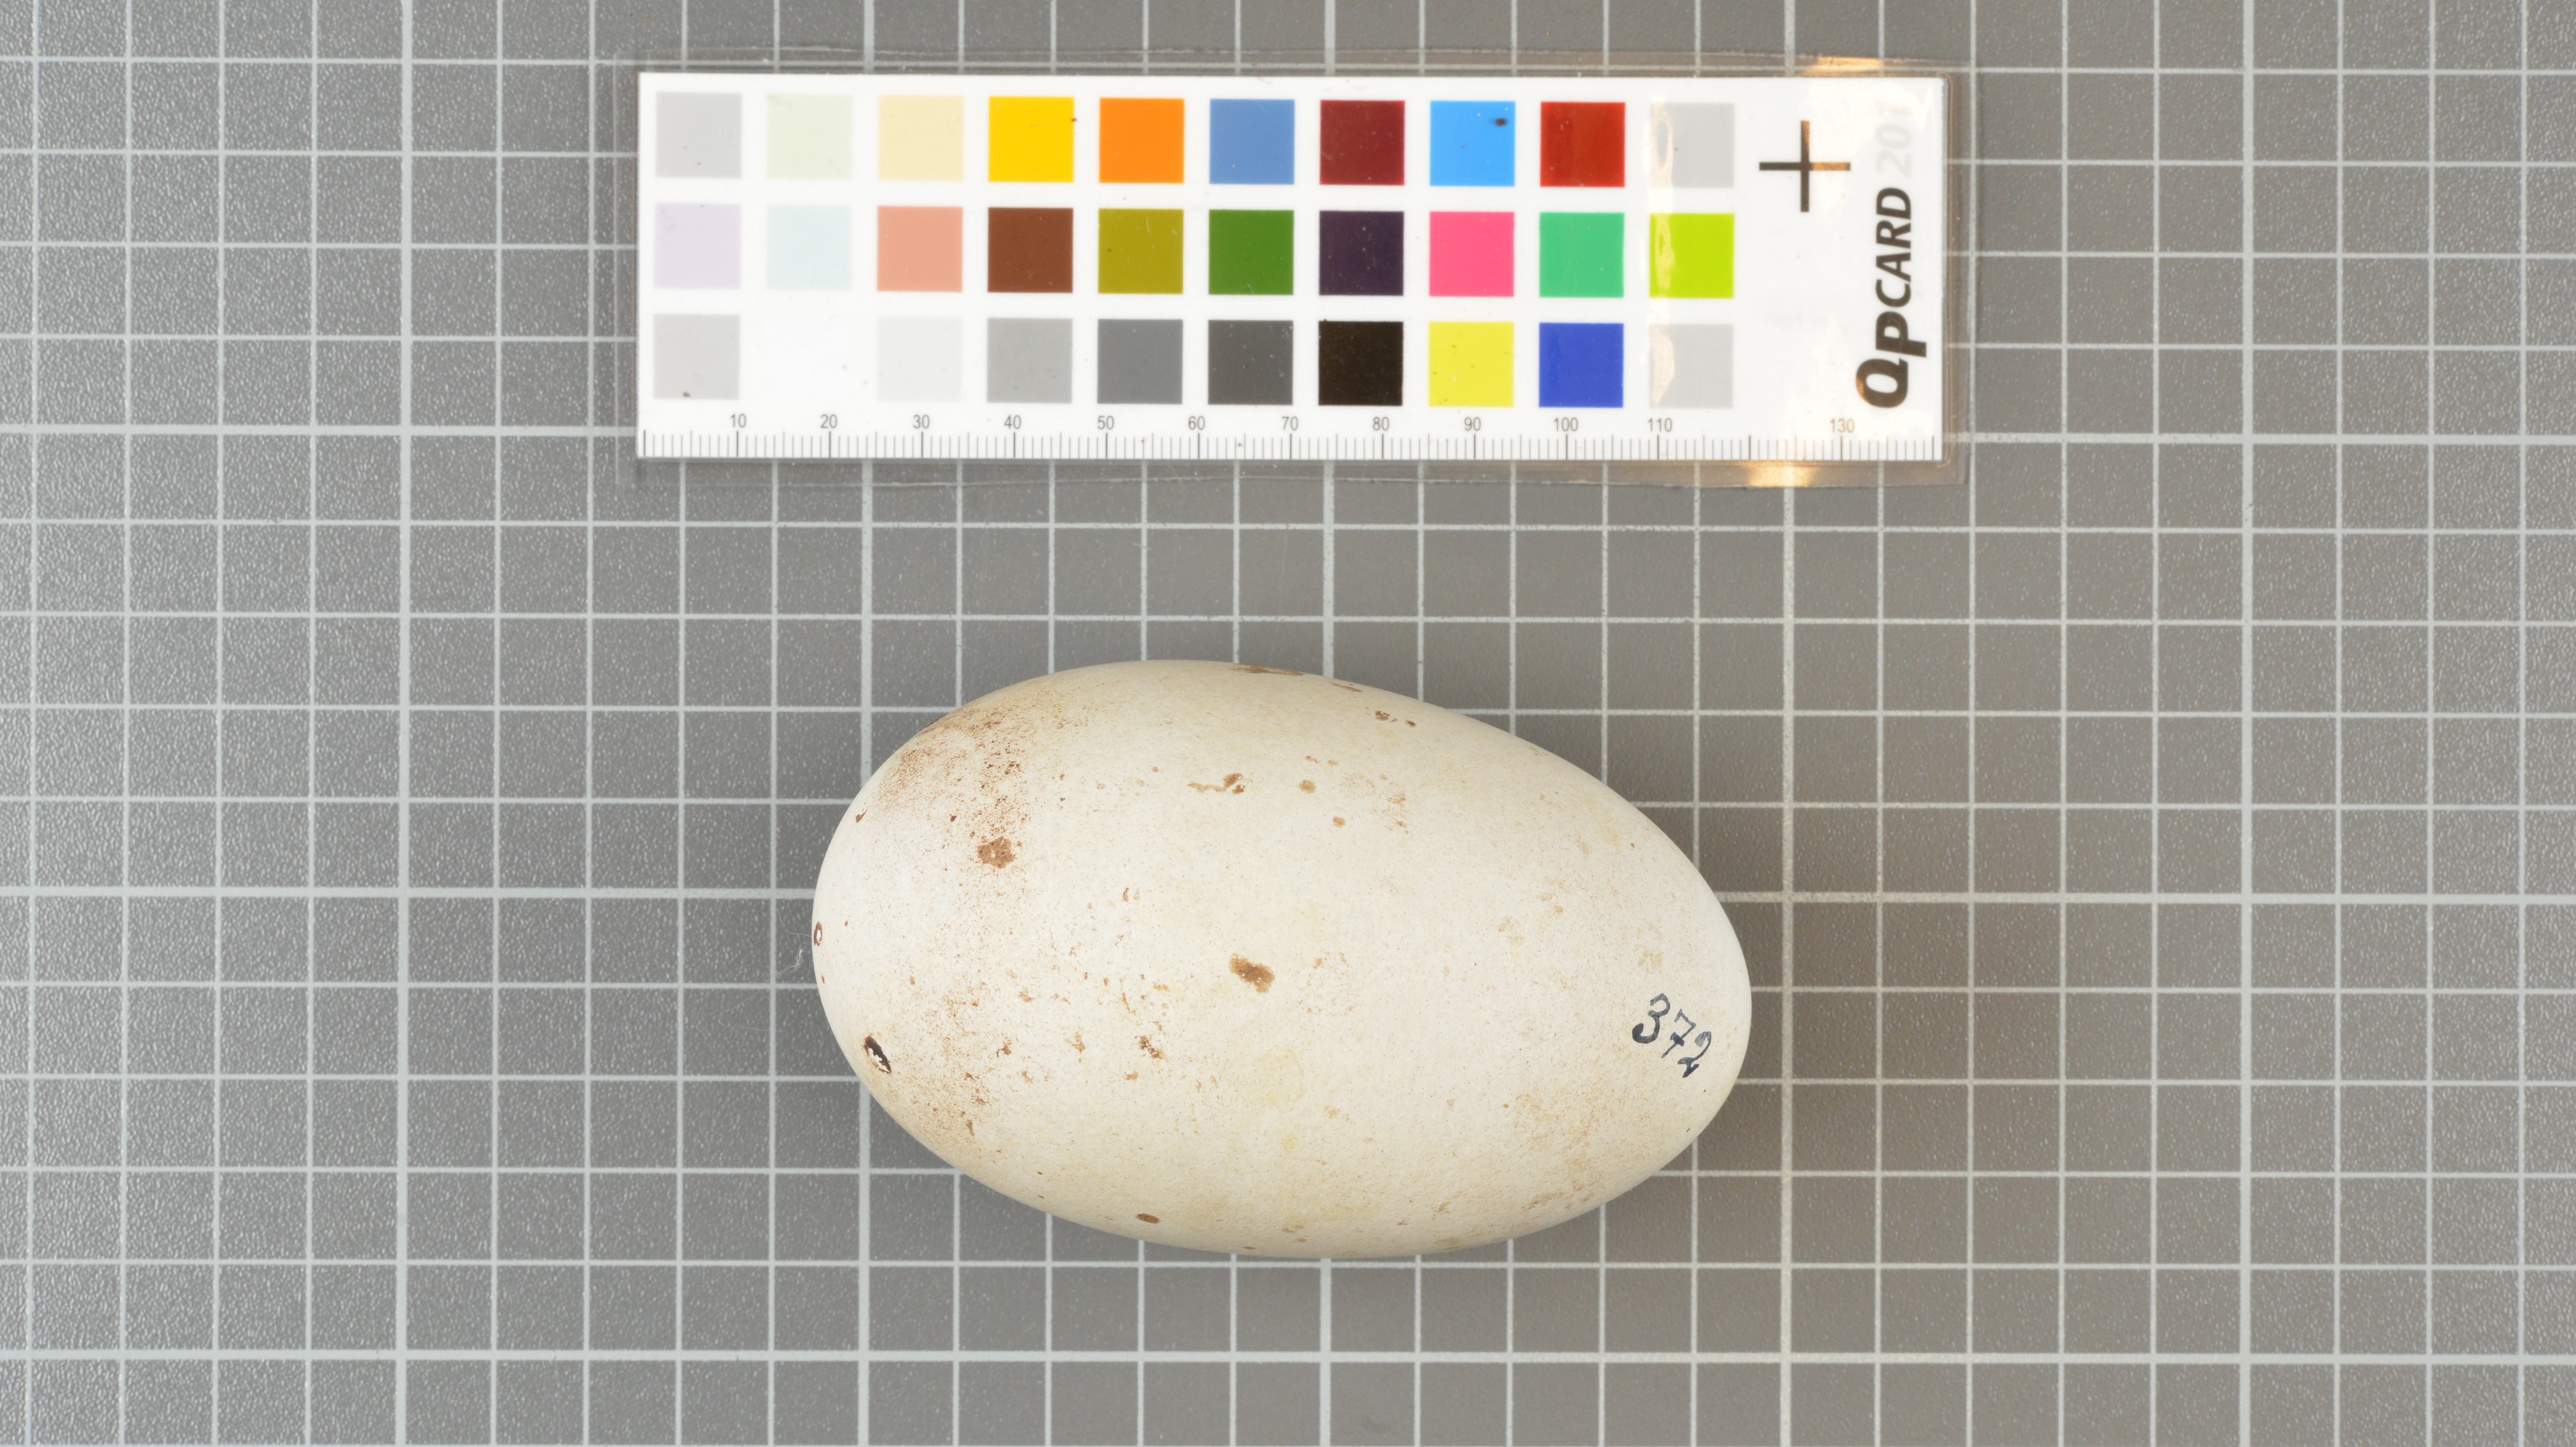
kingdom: Animalia
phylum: Chordata
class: Aves
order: Procellariiformes
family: Diomedeidae
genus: Thalassarche
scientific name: Thalassarche chlororhynchos
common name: Atlantic yellow-nosed albatross
